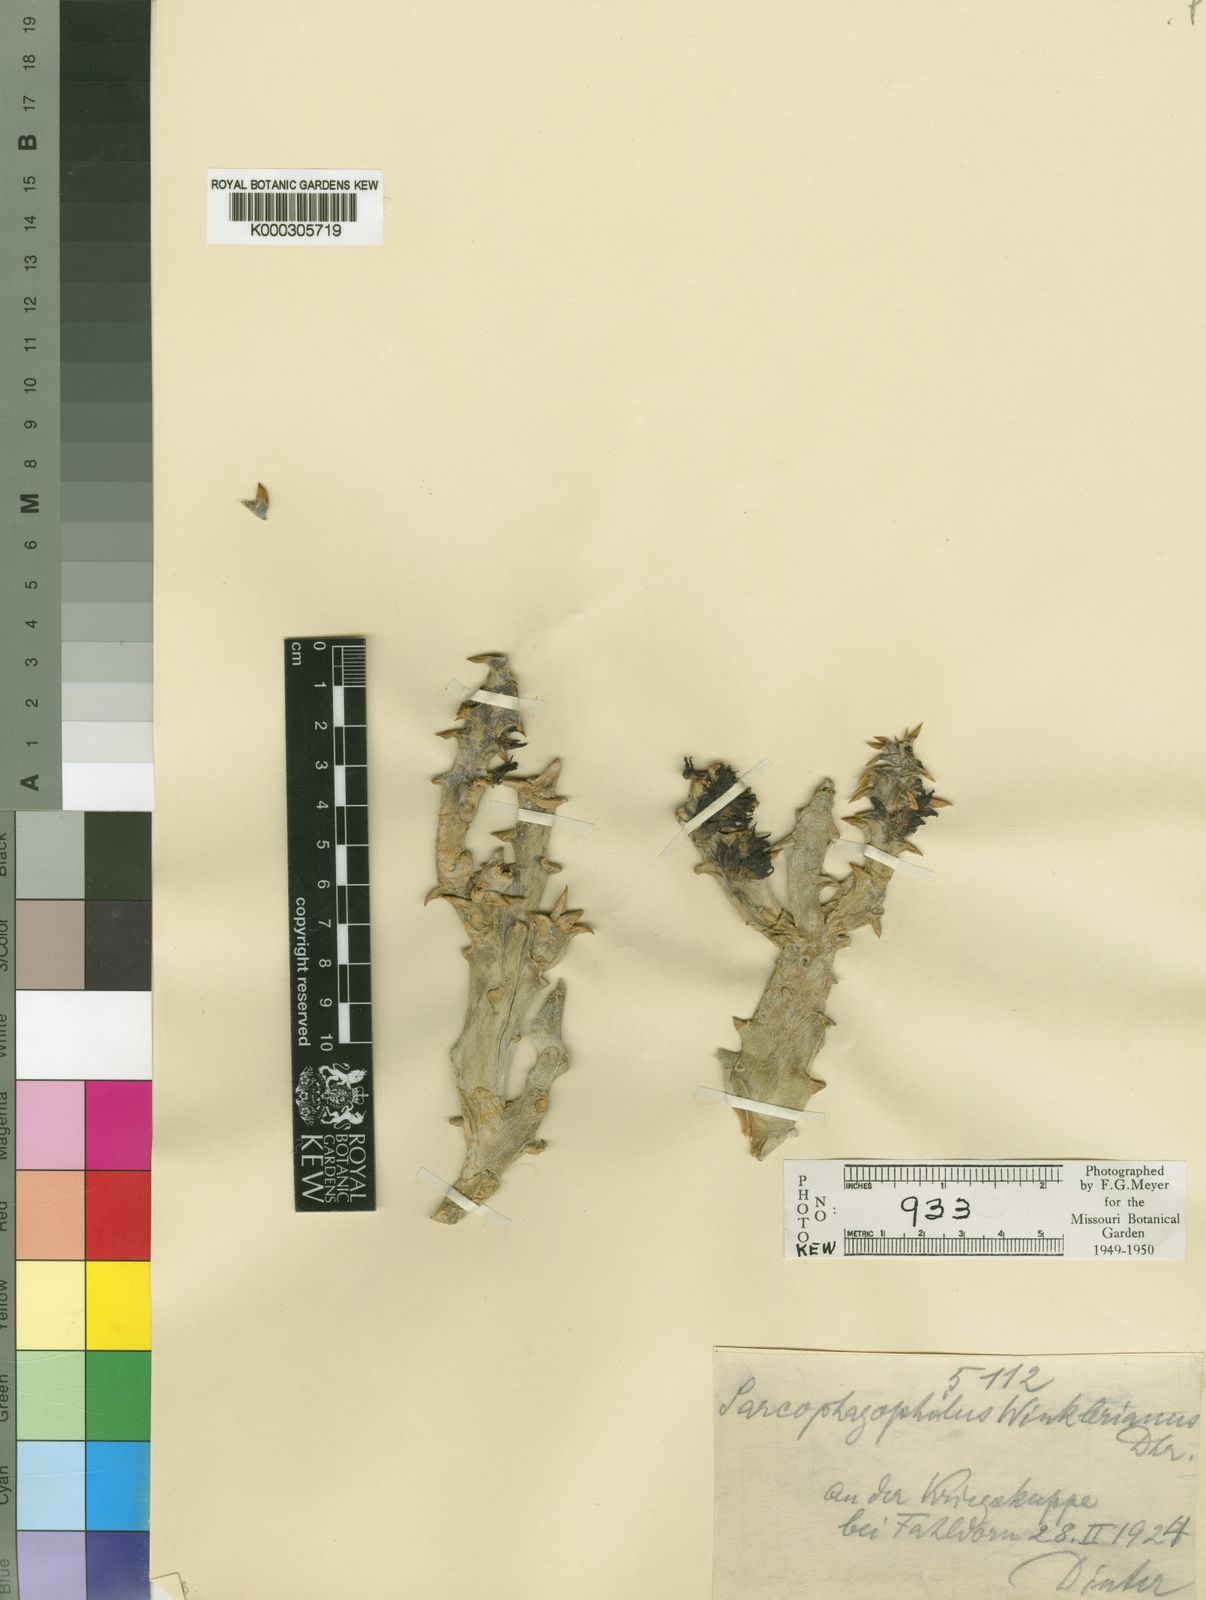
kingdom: Plantae
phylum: Tracheophyta
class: Magnoliopsida
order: Gentianales
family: Apocynaceae
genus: Ceropegia
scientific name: Ceropegia mammillaris
